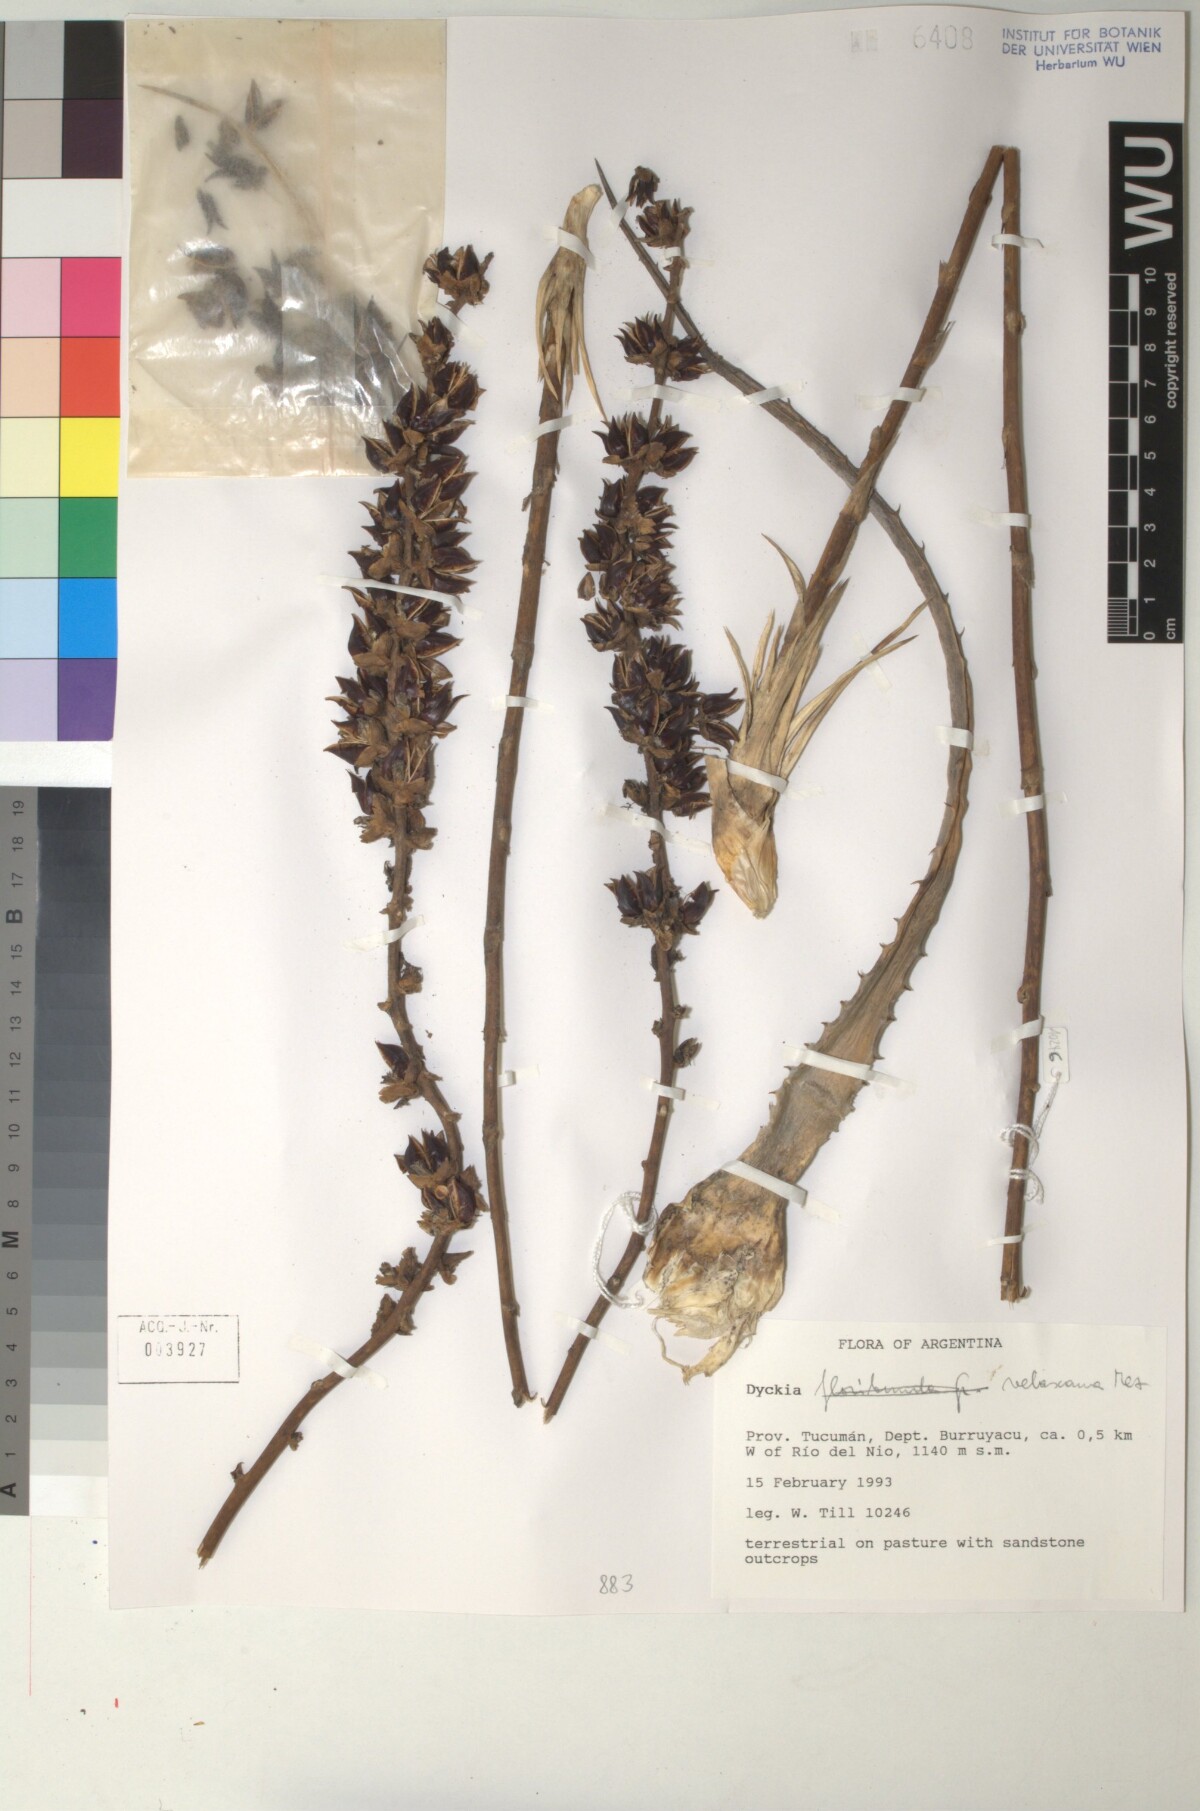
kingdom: Plantae
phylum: Tracheophyta
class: Liliopsida
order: Poales
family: Bromeliaceae
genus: Dyckia
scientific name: Dyckia velascana
